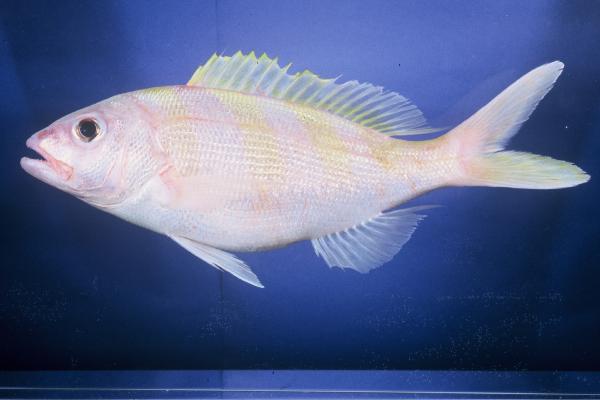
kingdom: Animalia
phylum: Chordata
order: Perciformes
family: Lutjanidae
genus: Pristipomoides
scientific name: Pristipomoides zonatus
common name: Brigham's snapper fish
